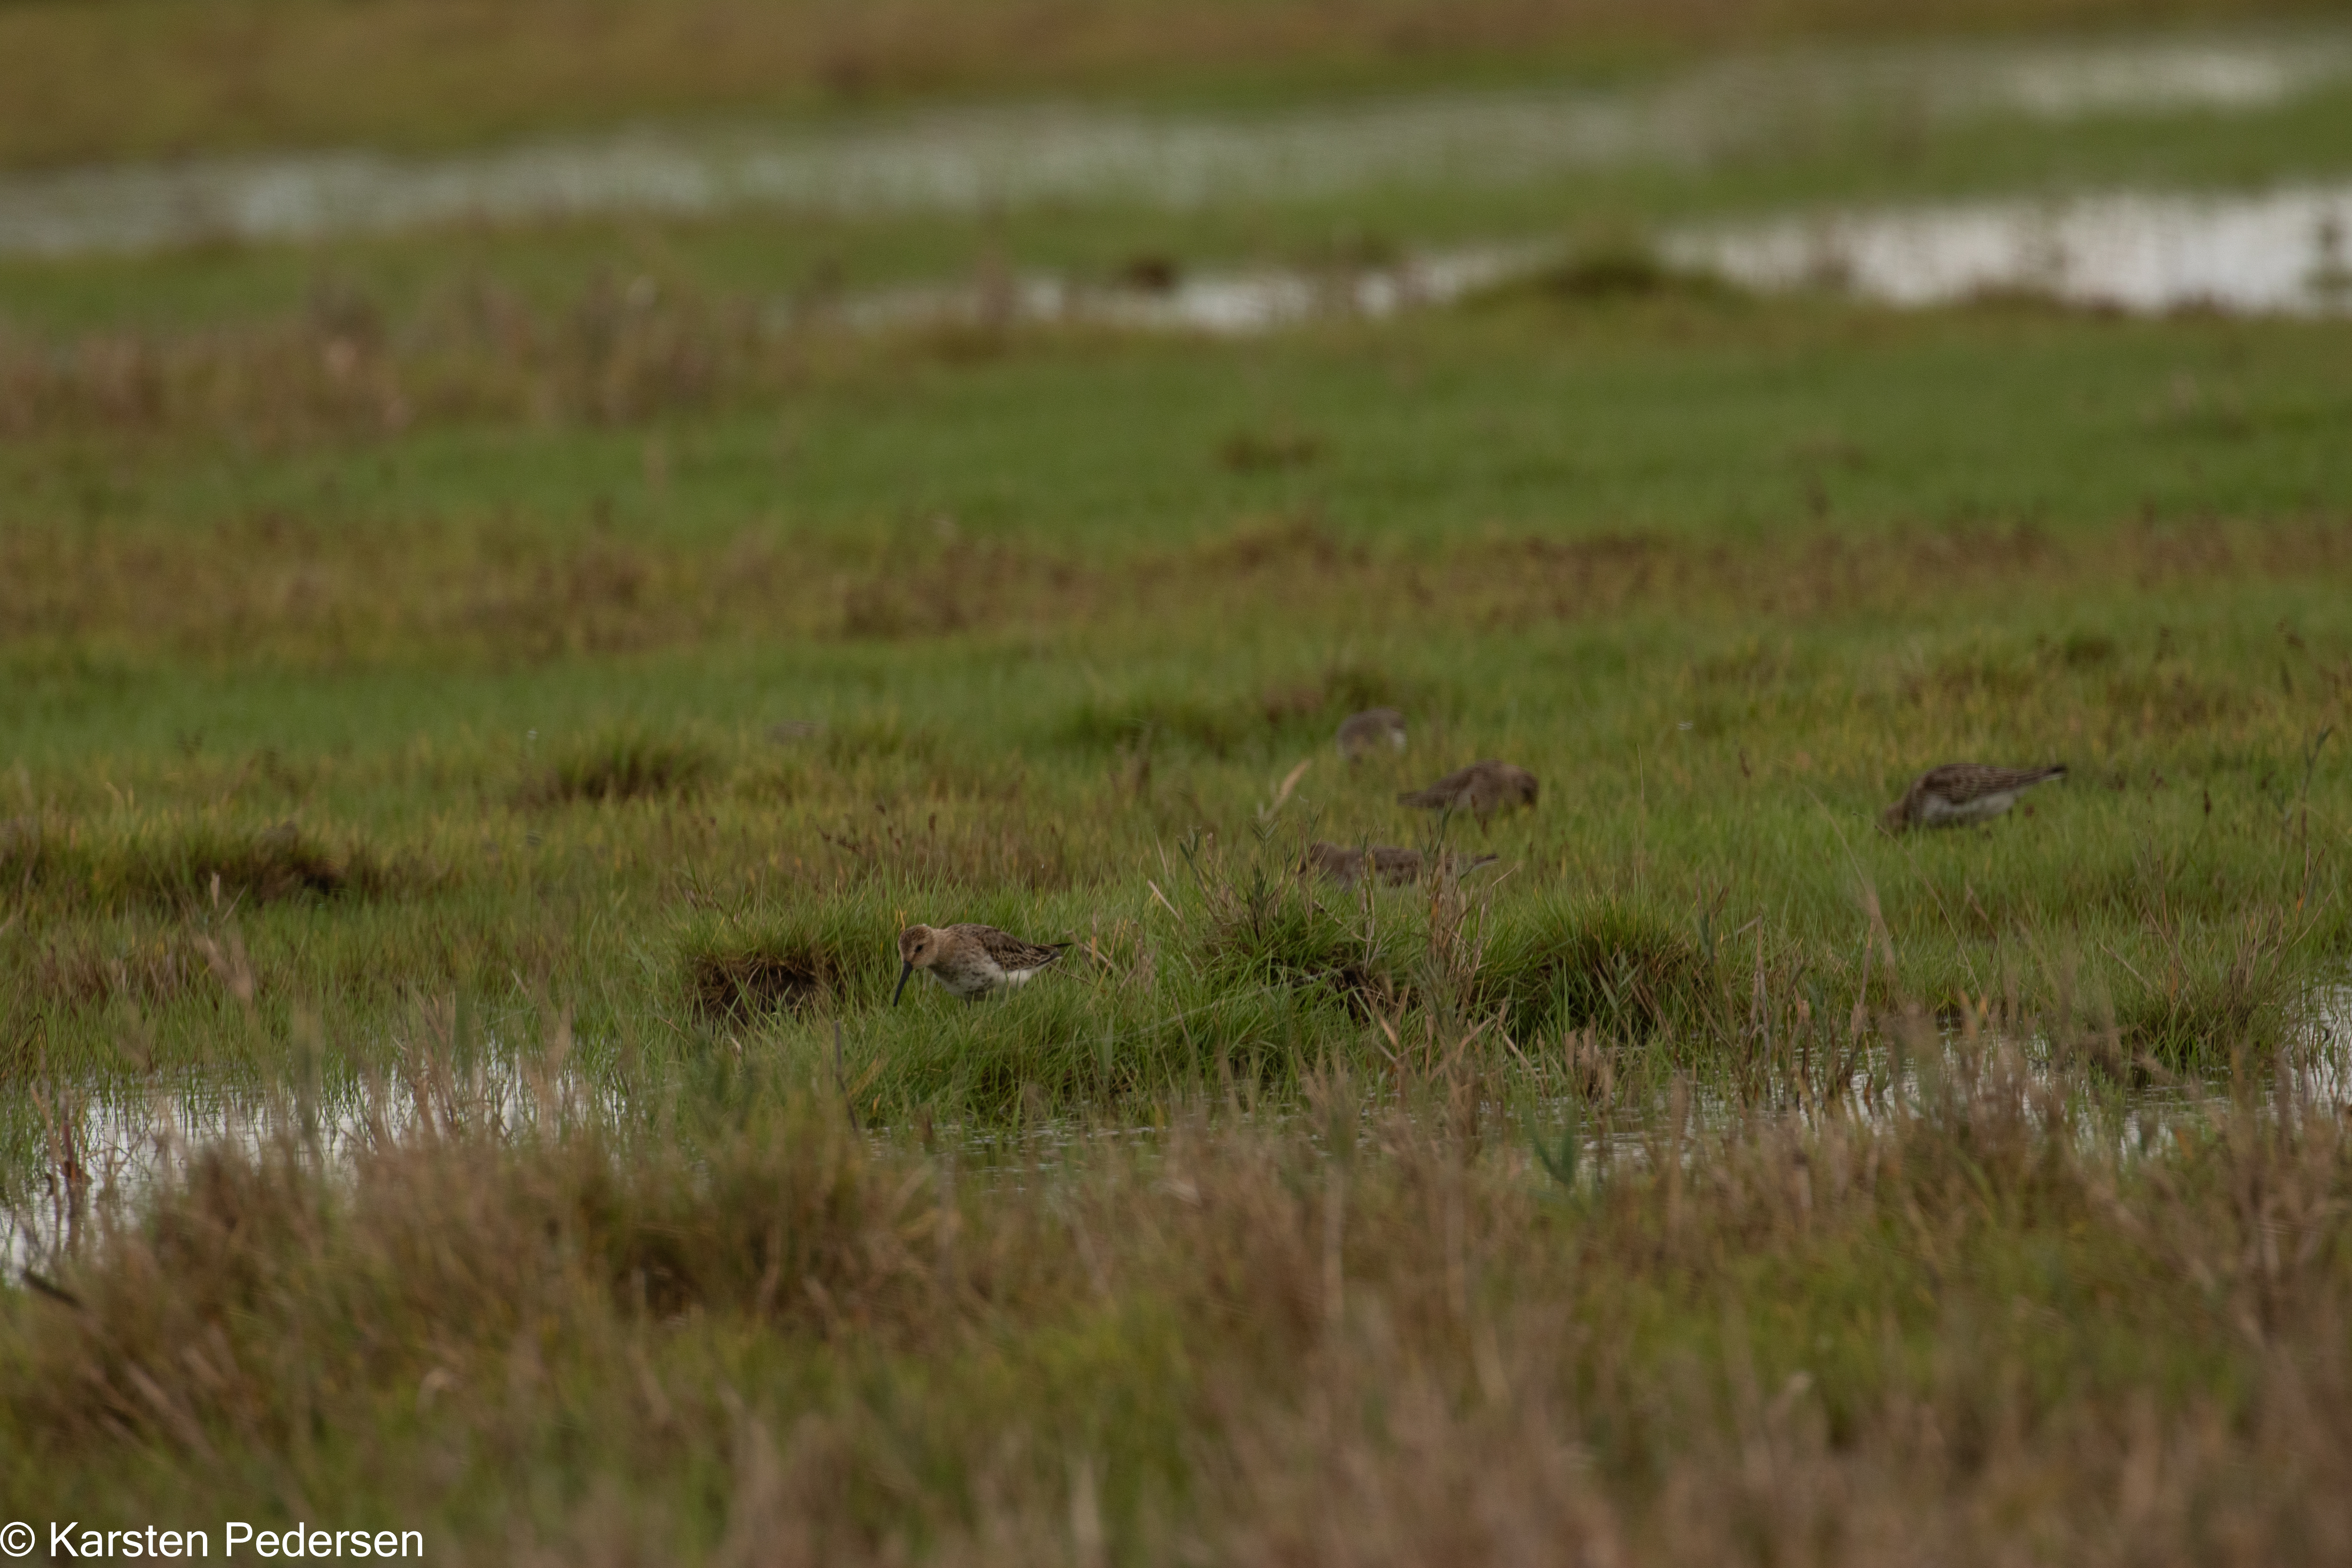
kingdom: Animalia
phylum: Chordata
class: Aves
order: Charadriiformes
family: Scolopacidae
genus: Calidris
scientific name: Calidris alpina
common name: Almindelig ryle
